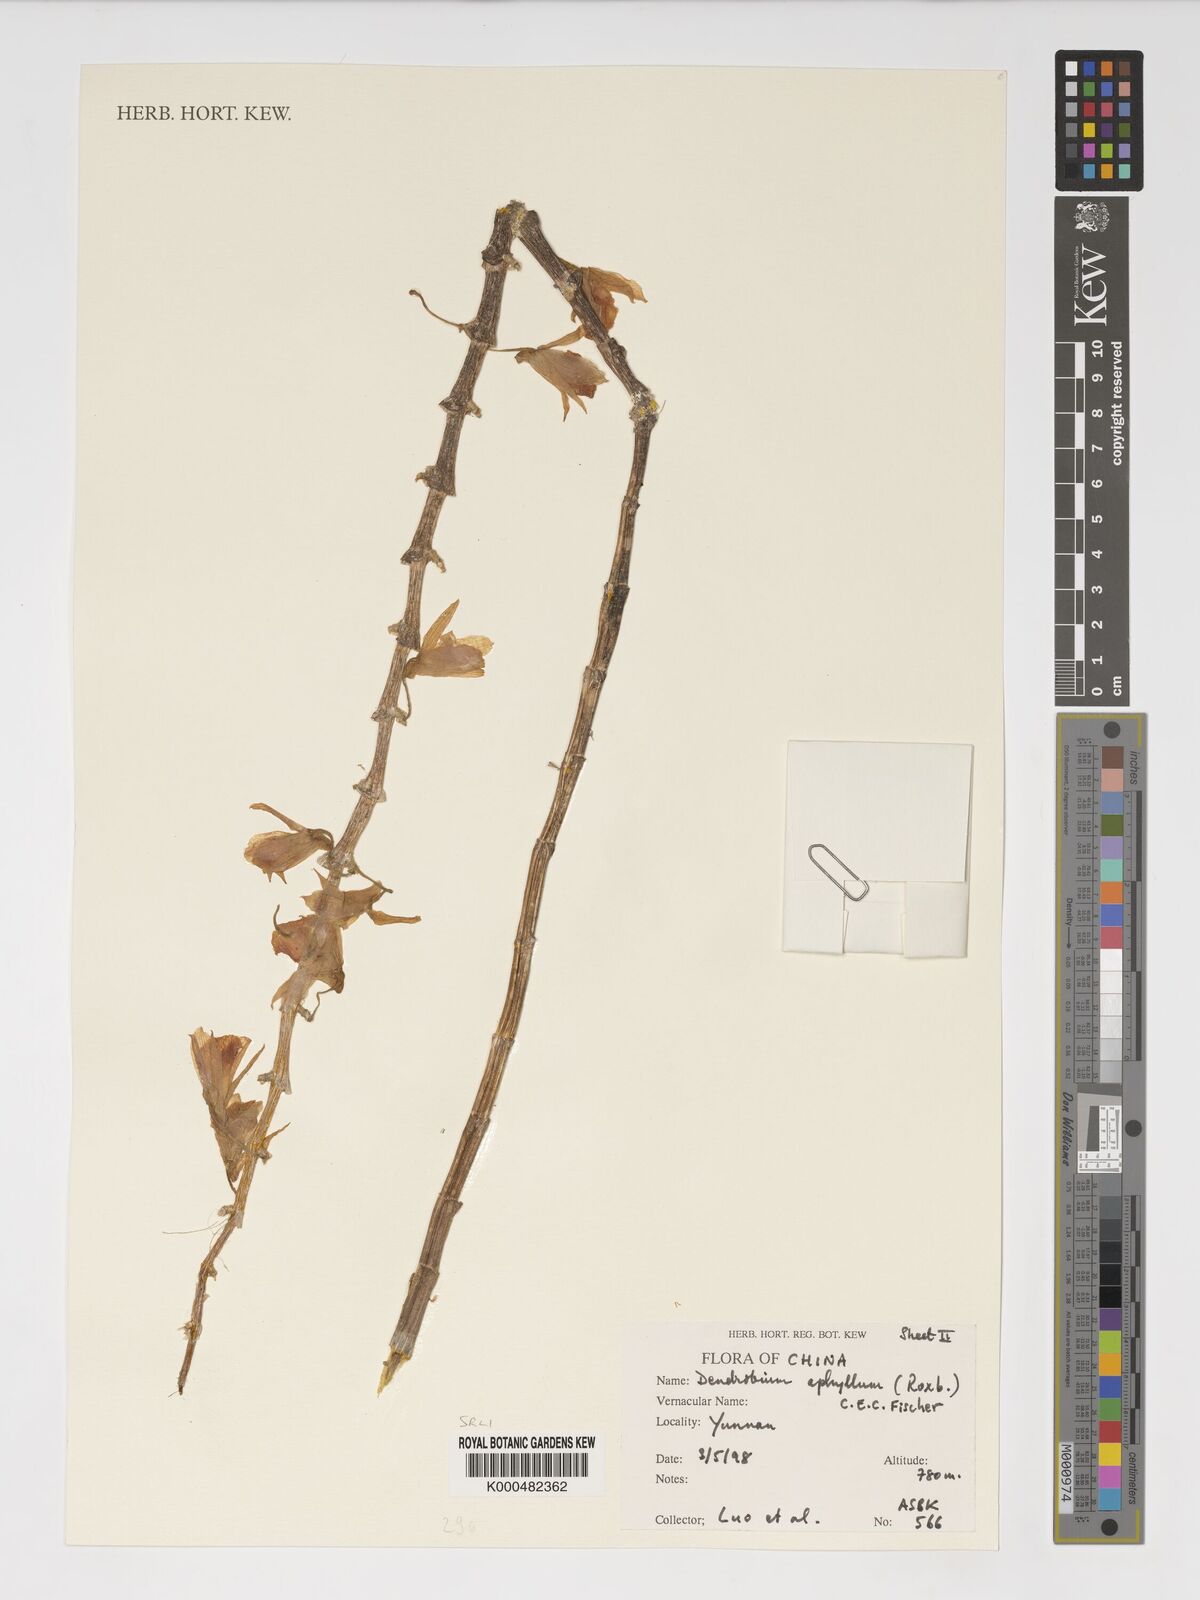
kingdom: Plantae
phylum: Tracheophyta
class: Liliopsida
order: Asparagales
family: Orchidaceae
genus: Dendrobium
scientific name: Dendrobium macrostachyum
